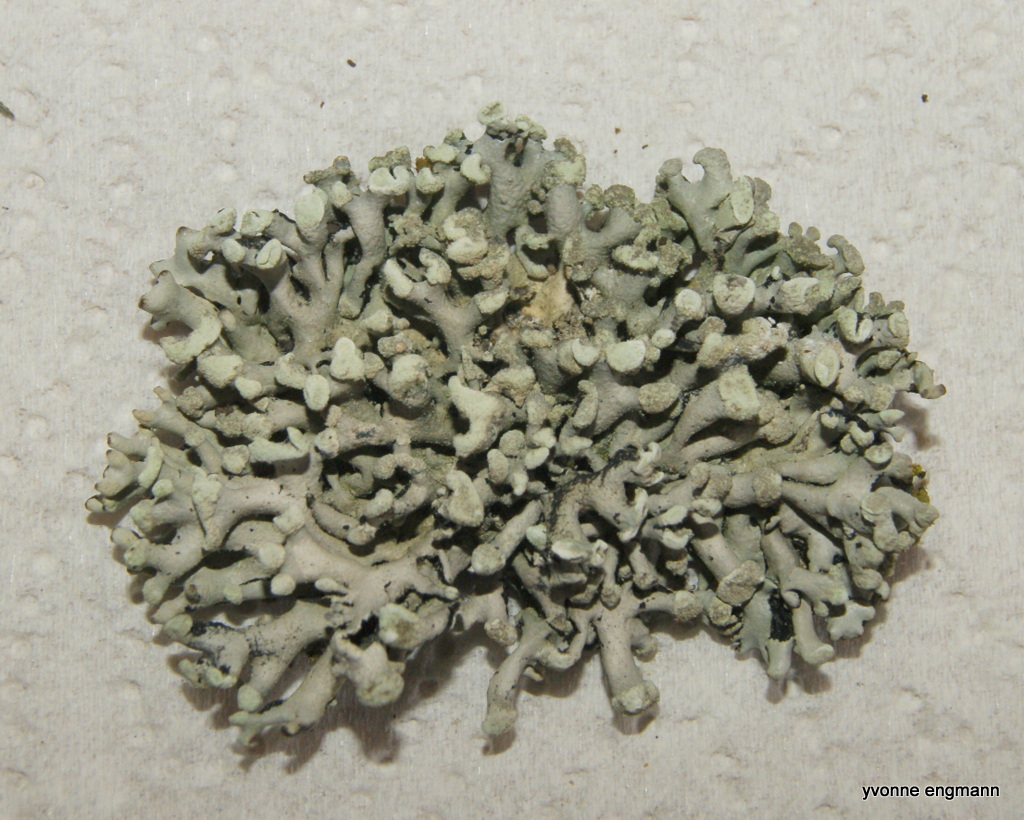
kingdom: Fungi
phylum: Ascomycota
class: Lecanoromycetes
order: Lecanorales
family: Parmeliaceae
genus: Hypogymnia
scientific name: Hypogymnia tubulosa
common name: finger-kvistlav
